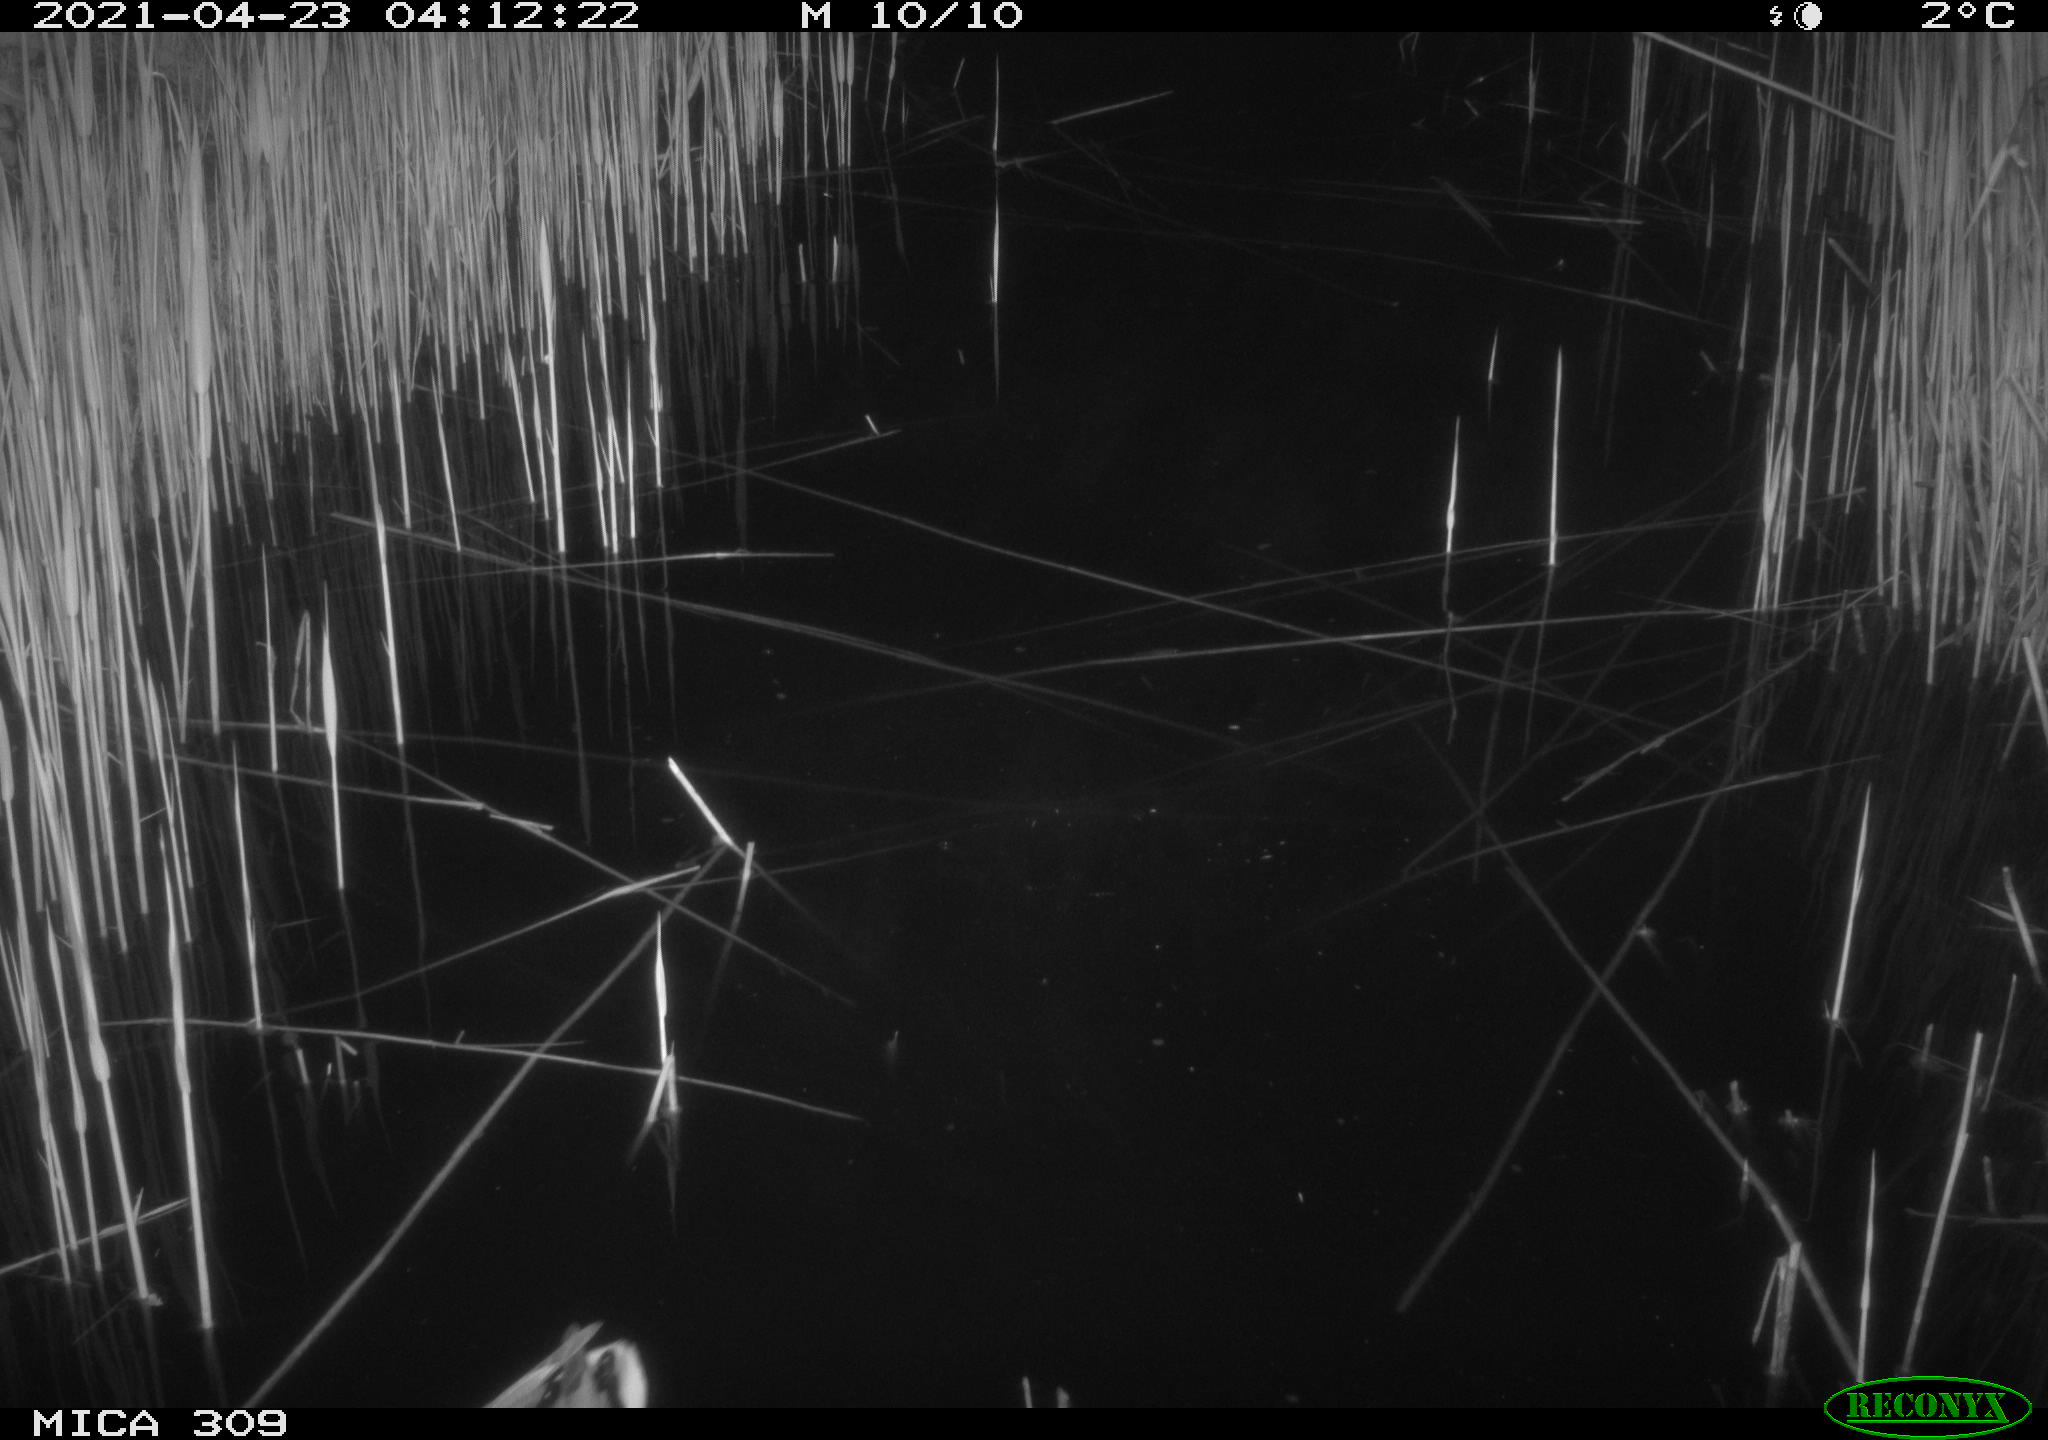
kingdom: Animalia
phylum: Chordata
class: Aves
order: Anseriformes
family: Anatidae
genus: Anas
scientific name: Anas platyrhynchos
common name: Mallard
